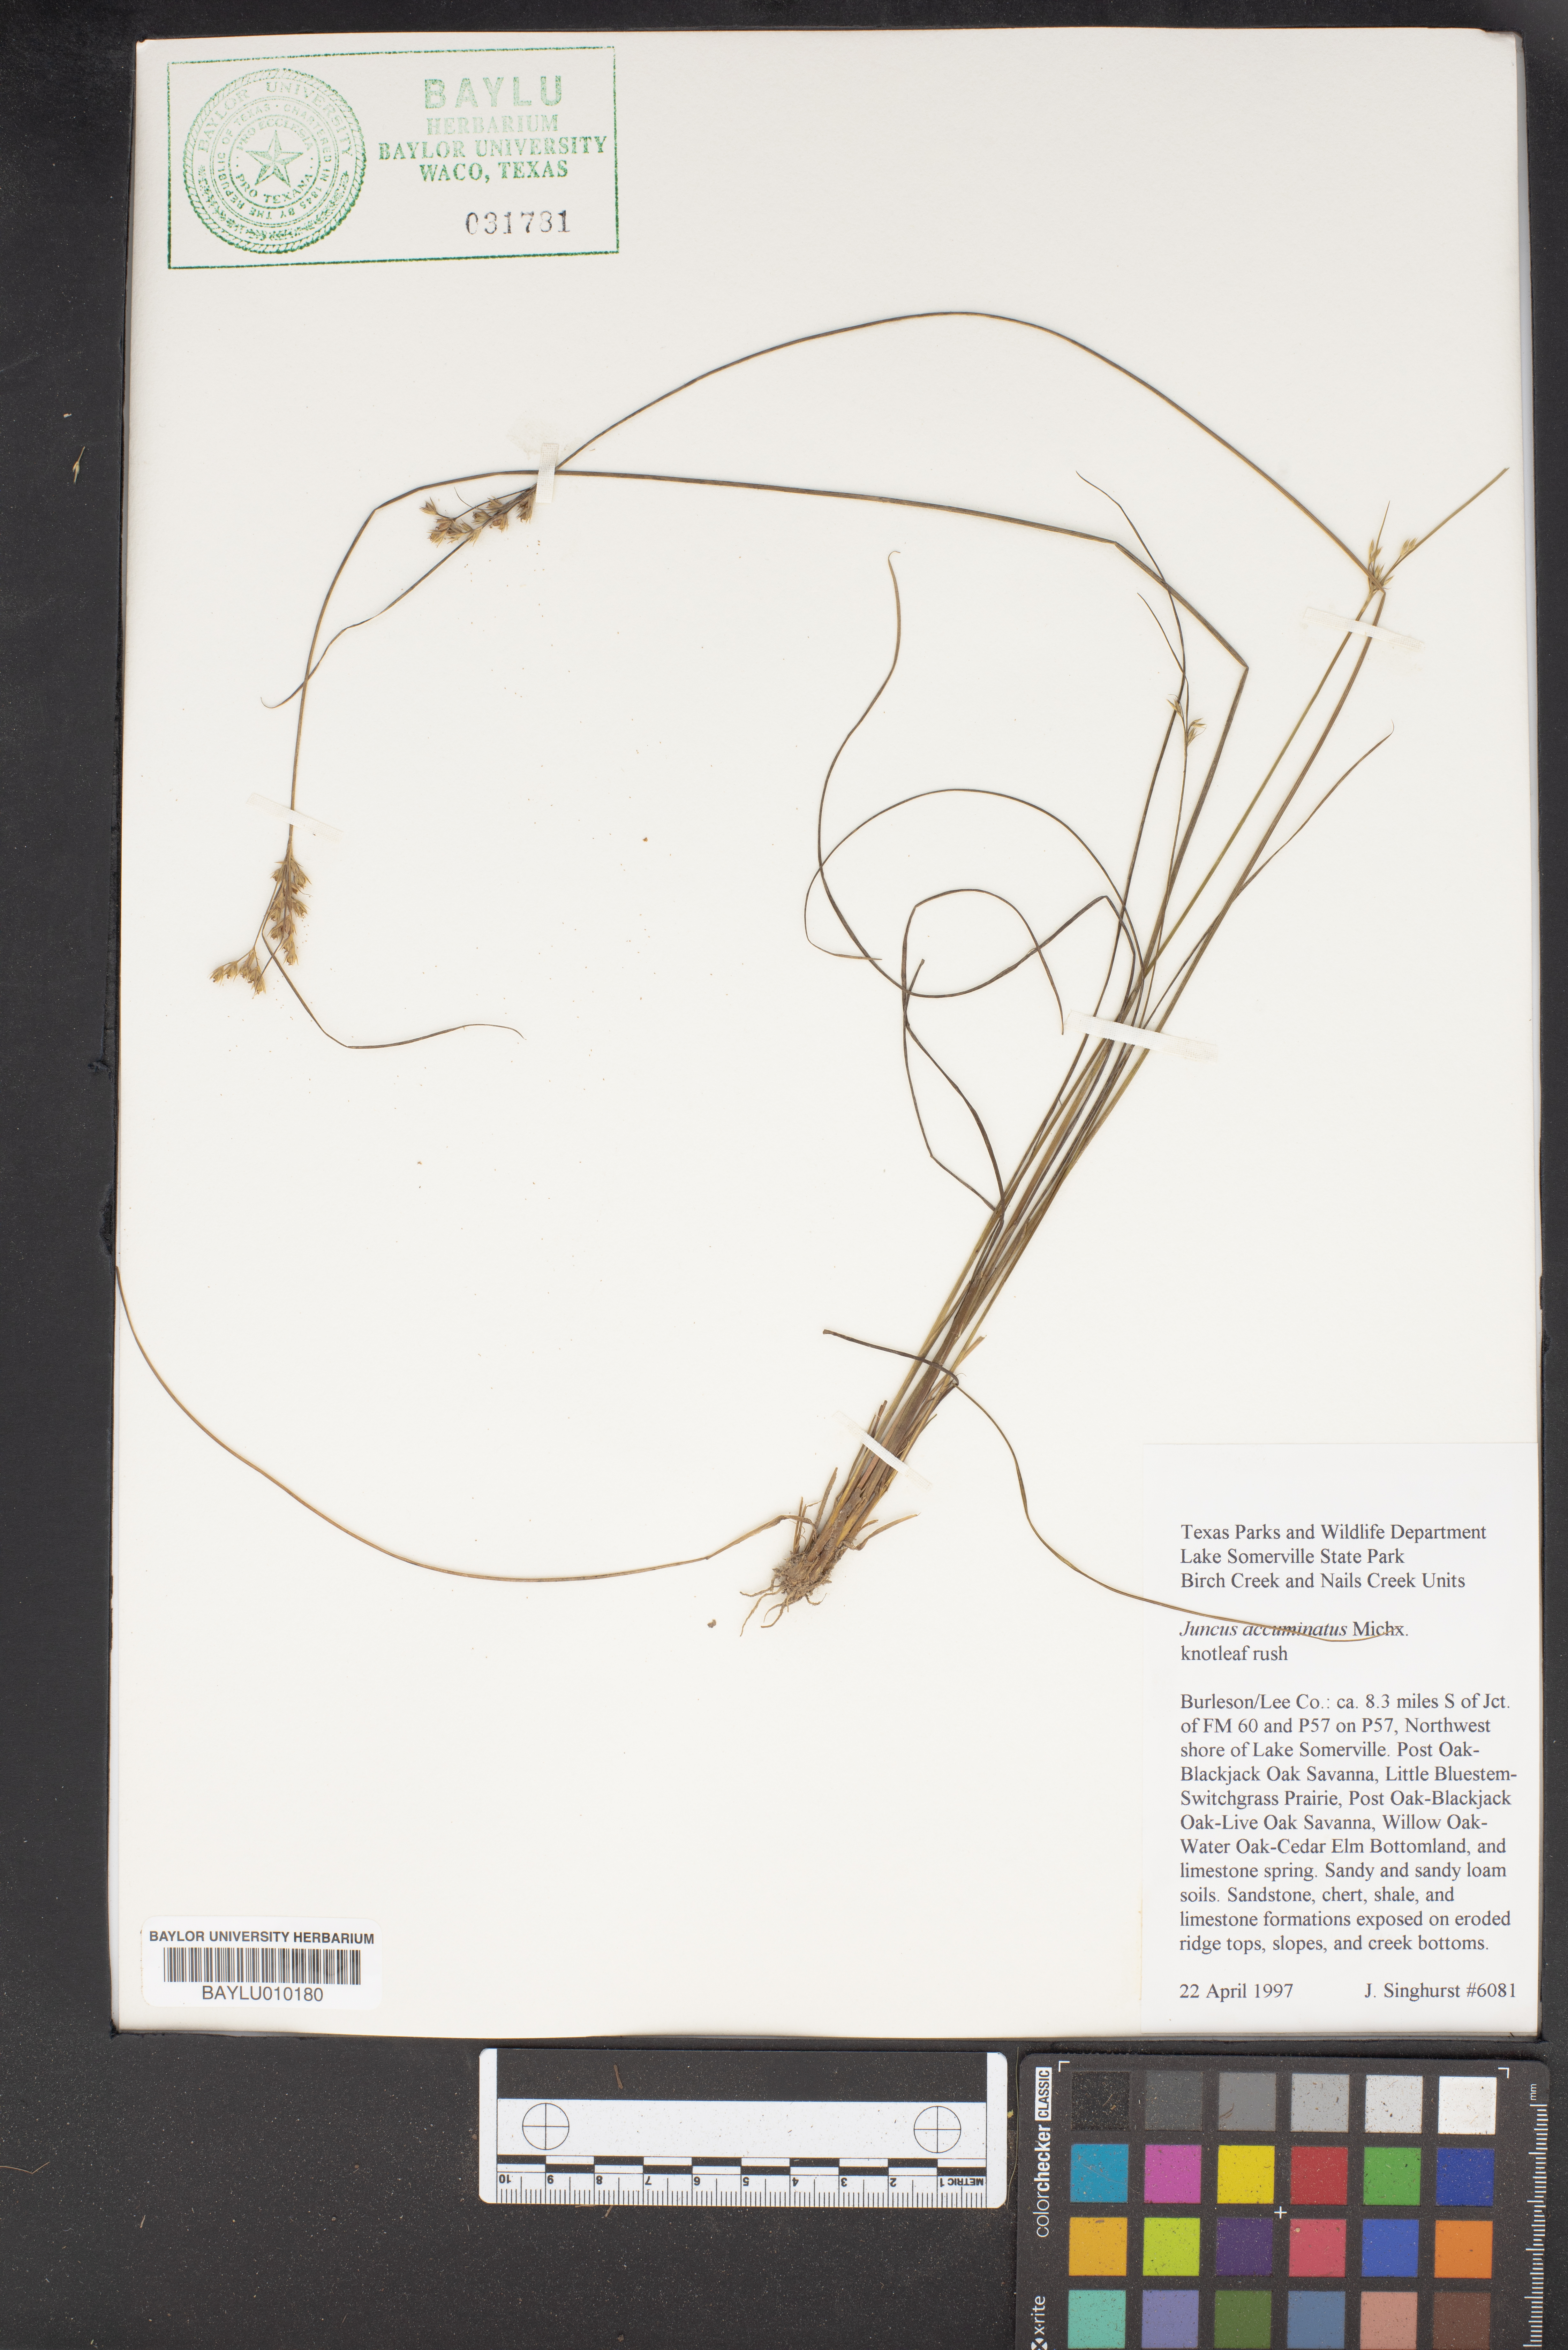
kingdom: Plantae
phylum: Tracheophyta
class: Liliopsida
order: Poales
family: Juncaceae
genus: Juncus
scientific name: Juncus acuminatus
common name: Knotty-leaved rush
